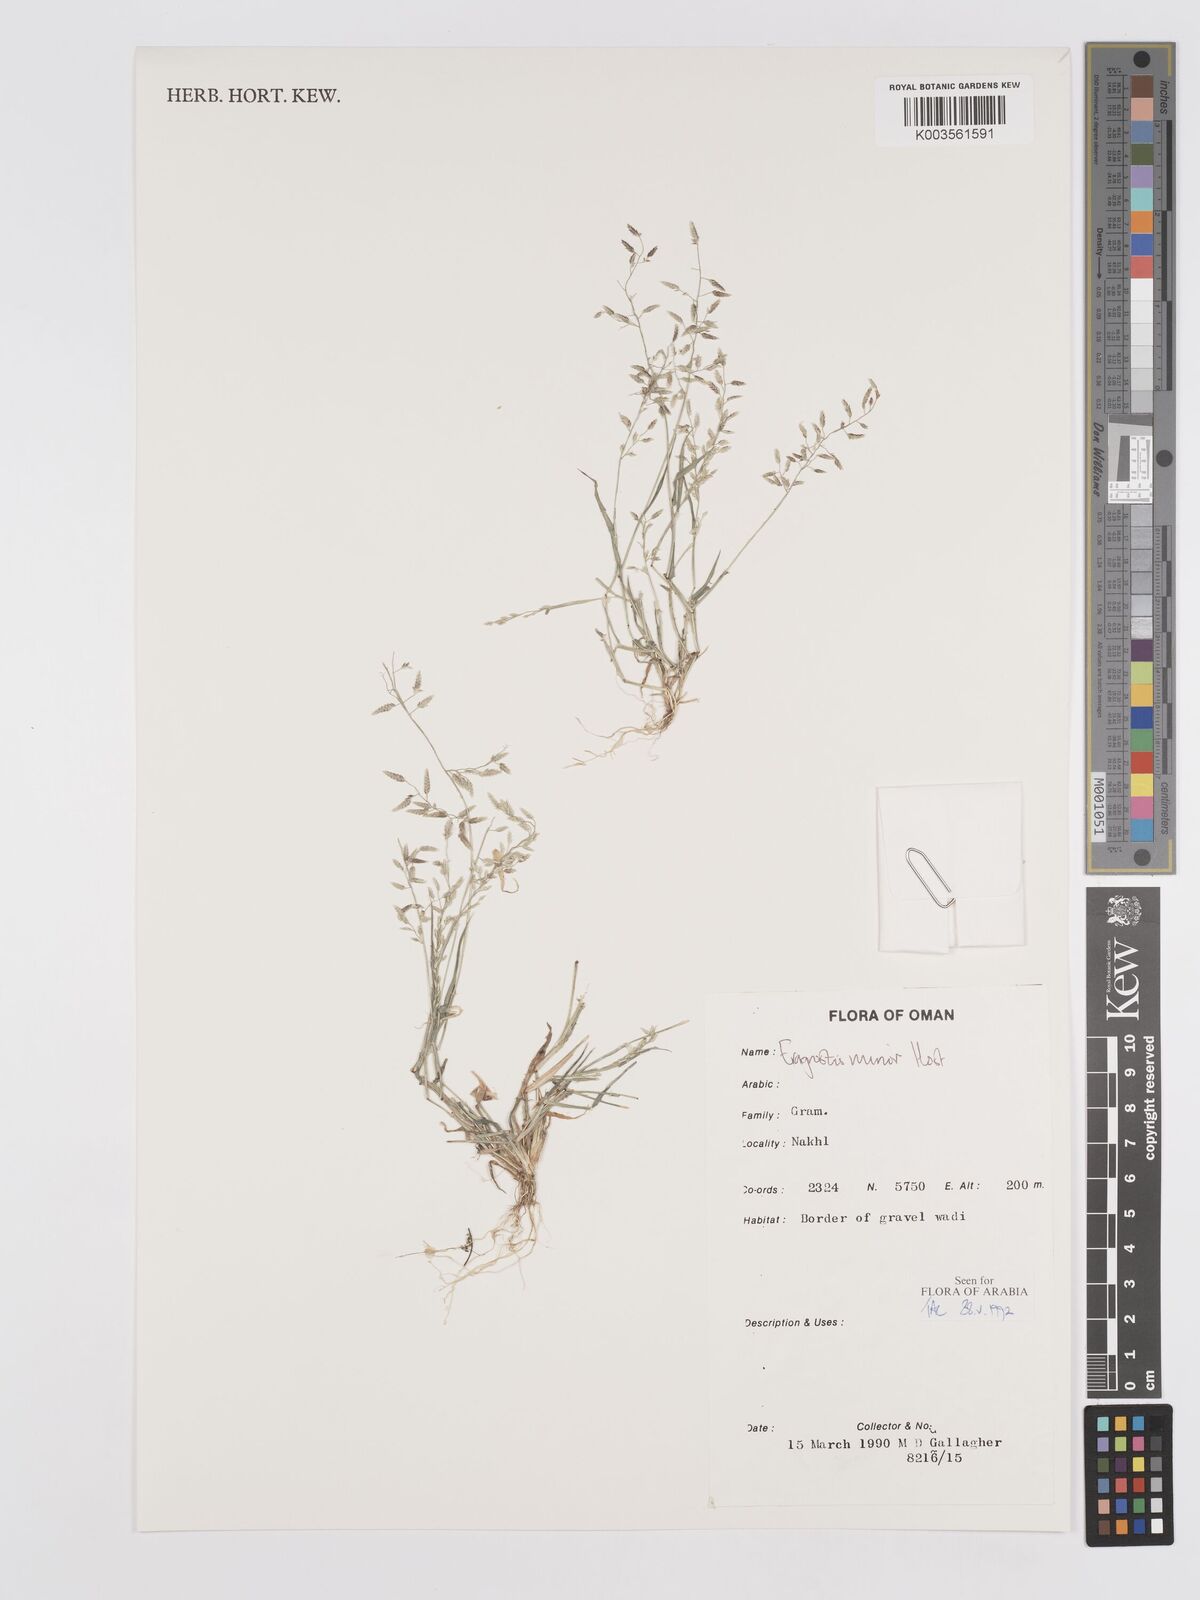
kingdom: Plantae
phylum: Tracheophyta
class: Liliopsida
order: Poales
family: Poaceae
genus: Eragrostis
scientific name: Eragrostis minor
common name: Small love-grass
